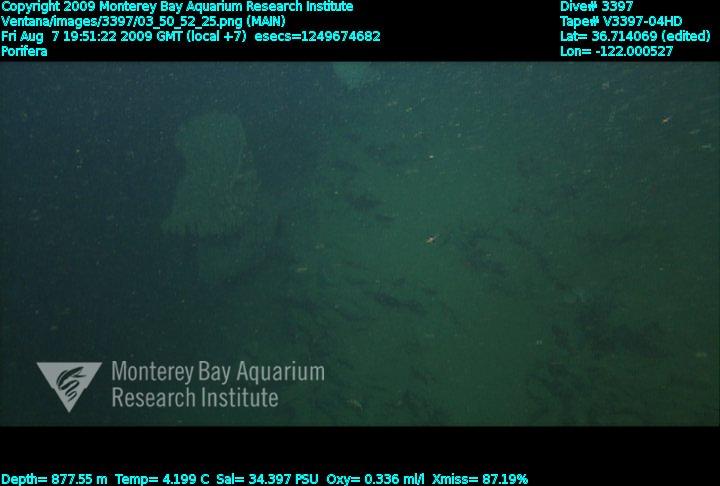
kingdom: Animalia
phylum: Porifera
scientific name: Porifera
